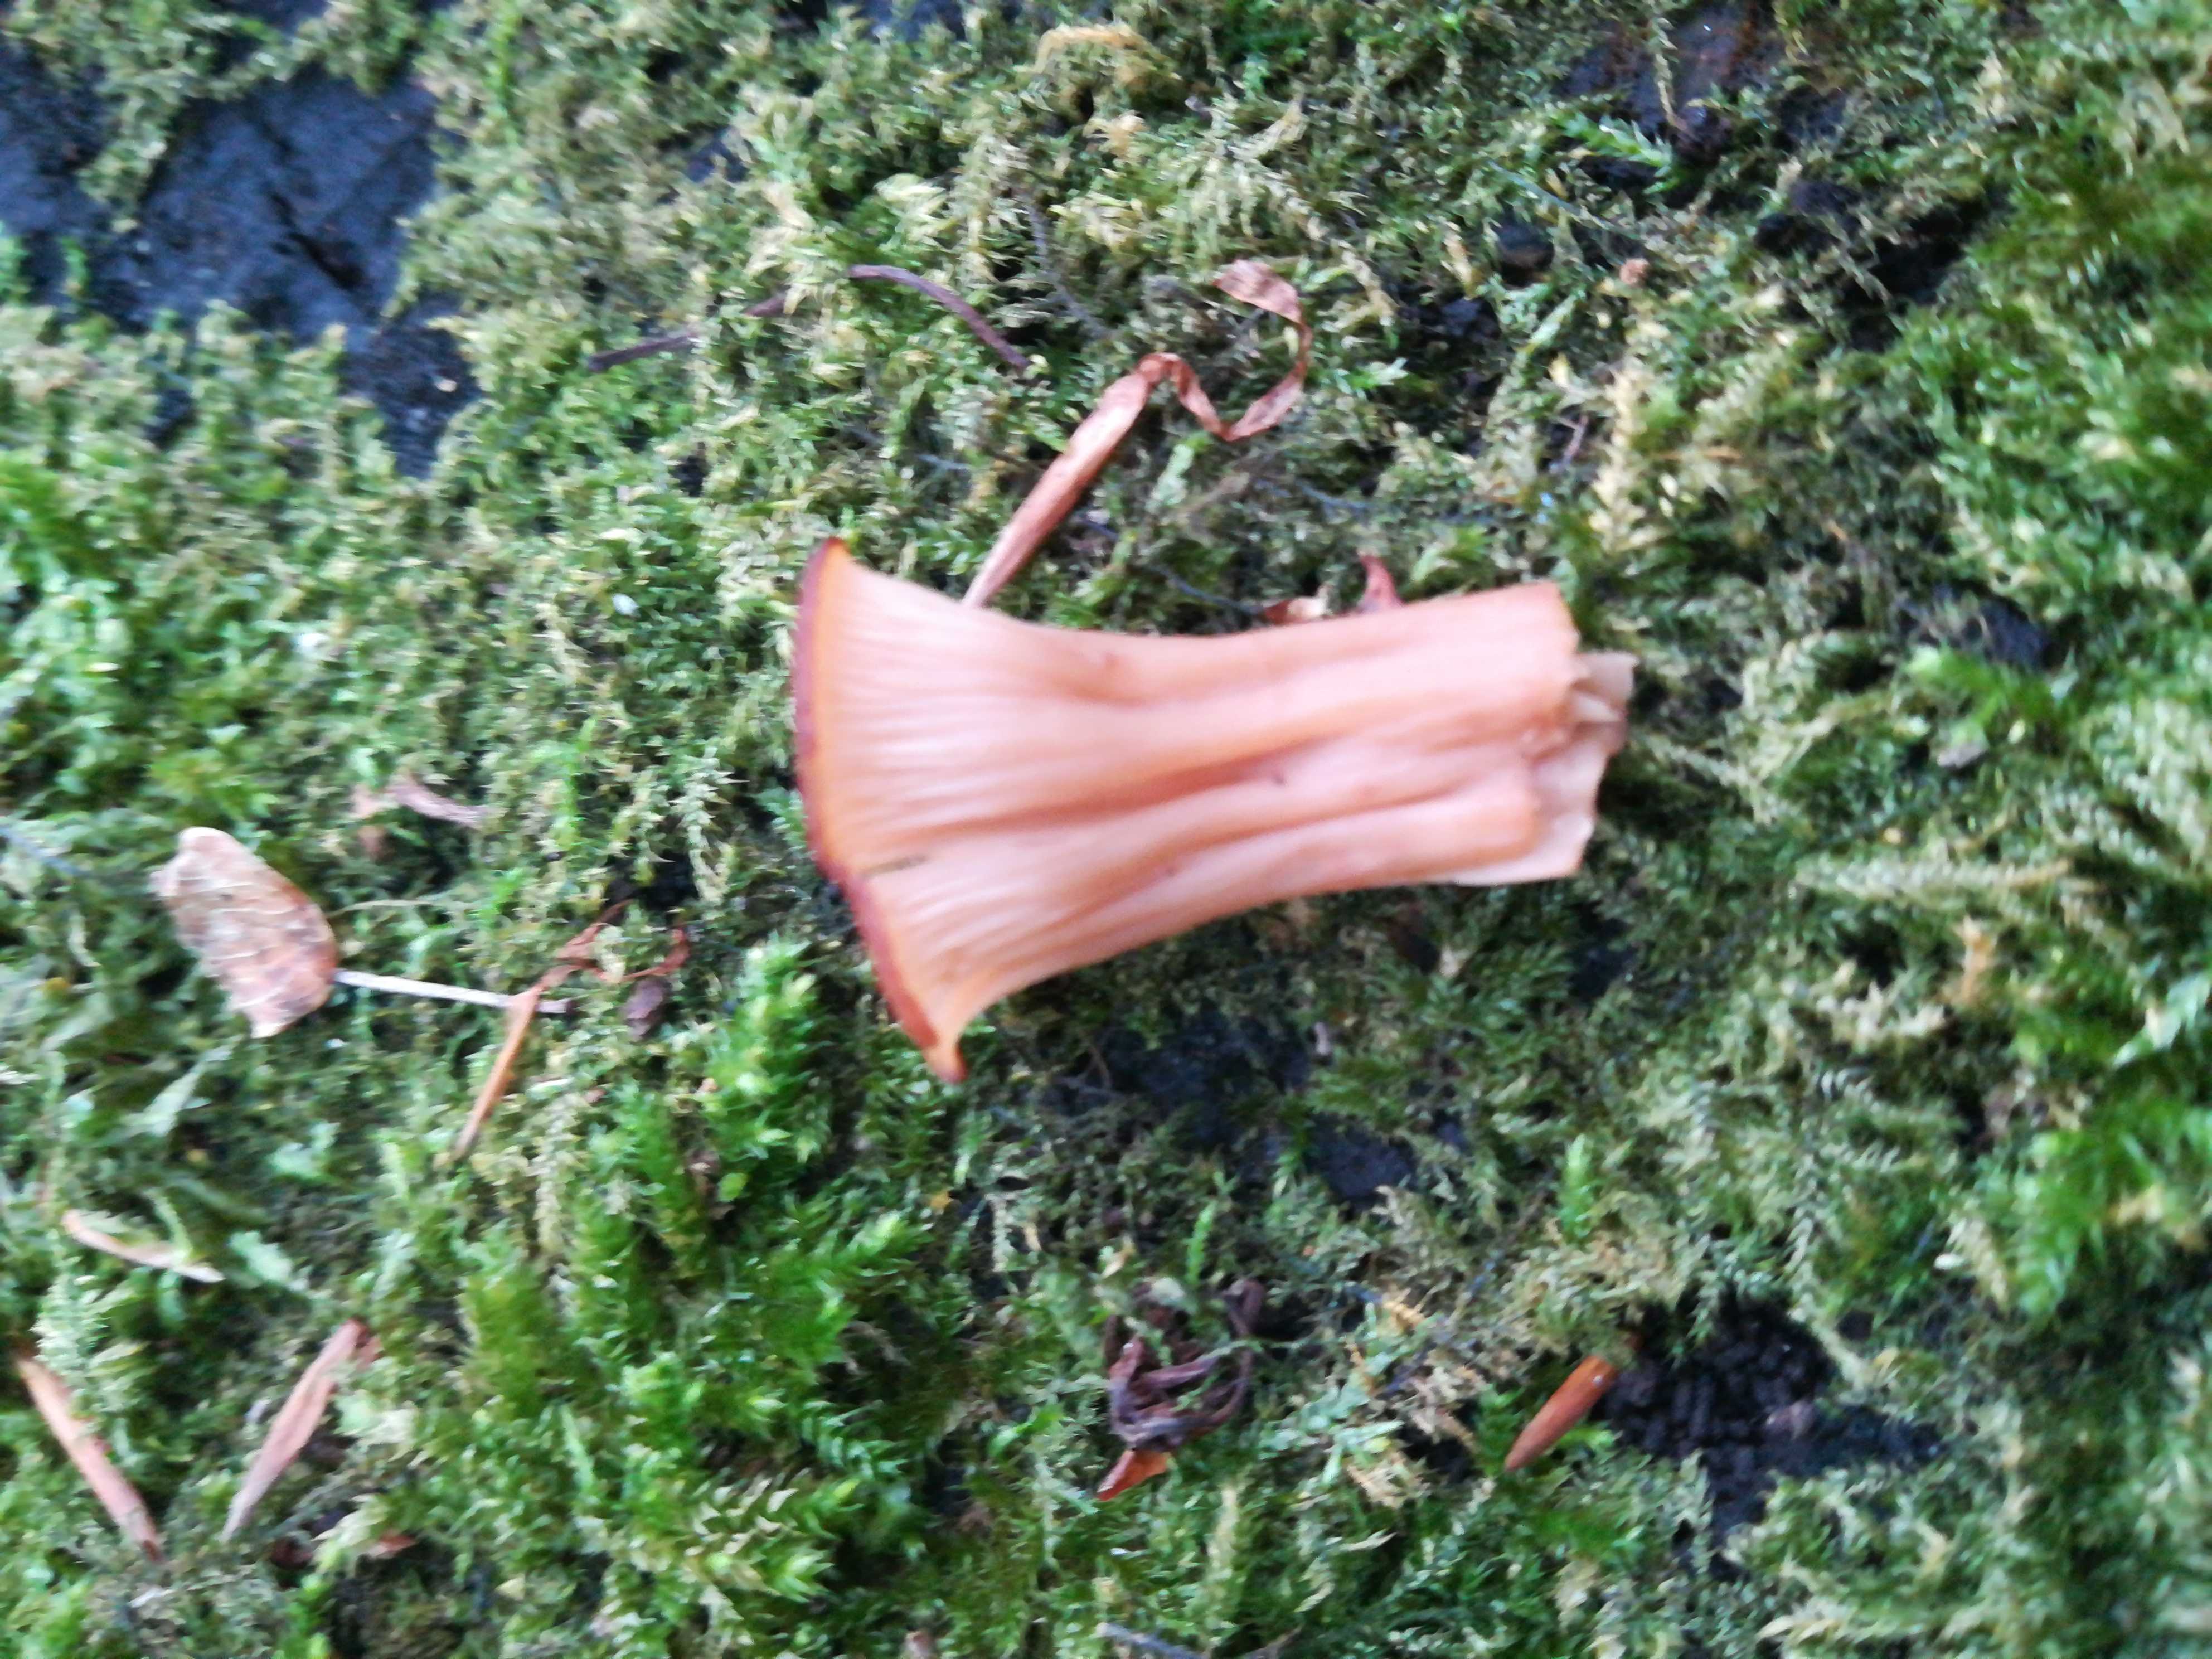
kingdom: Fungi
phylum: Basidiomycota
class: Agaricomycetes
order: Russulales
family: Auriscalpiaceae
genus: Lentinellus
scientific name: Lentinellus cochleatus
